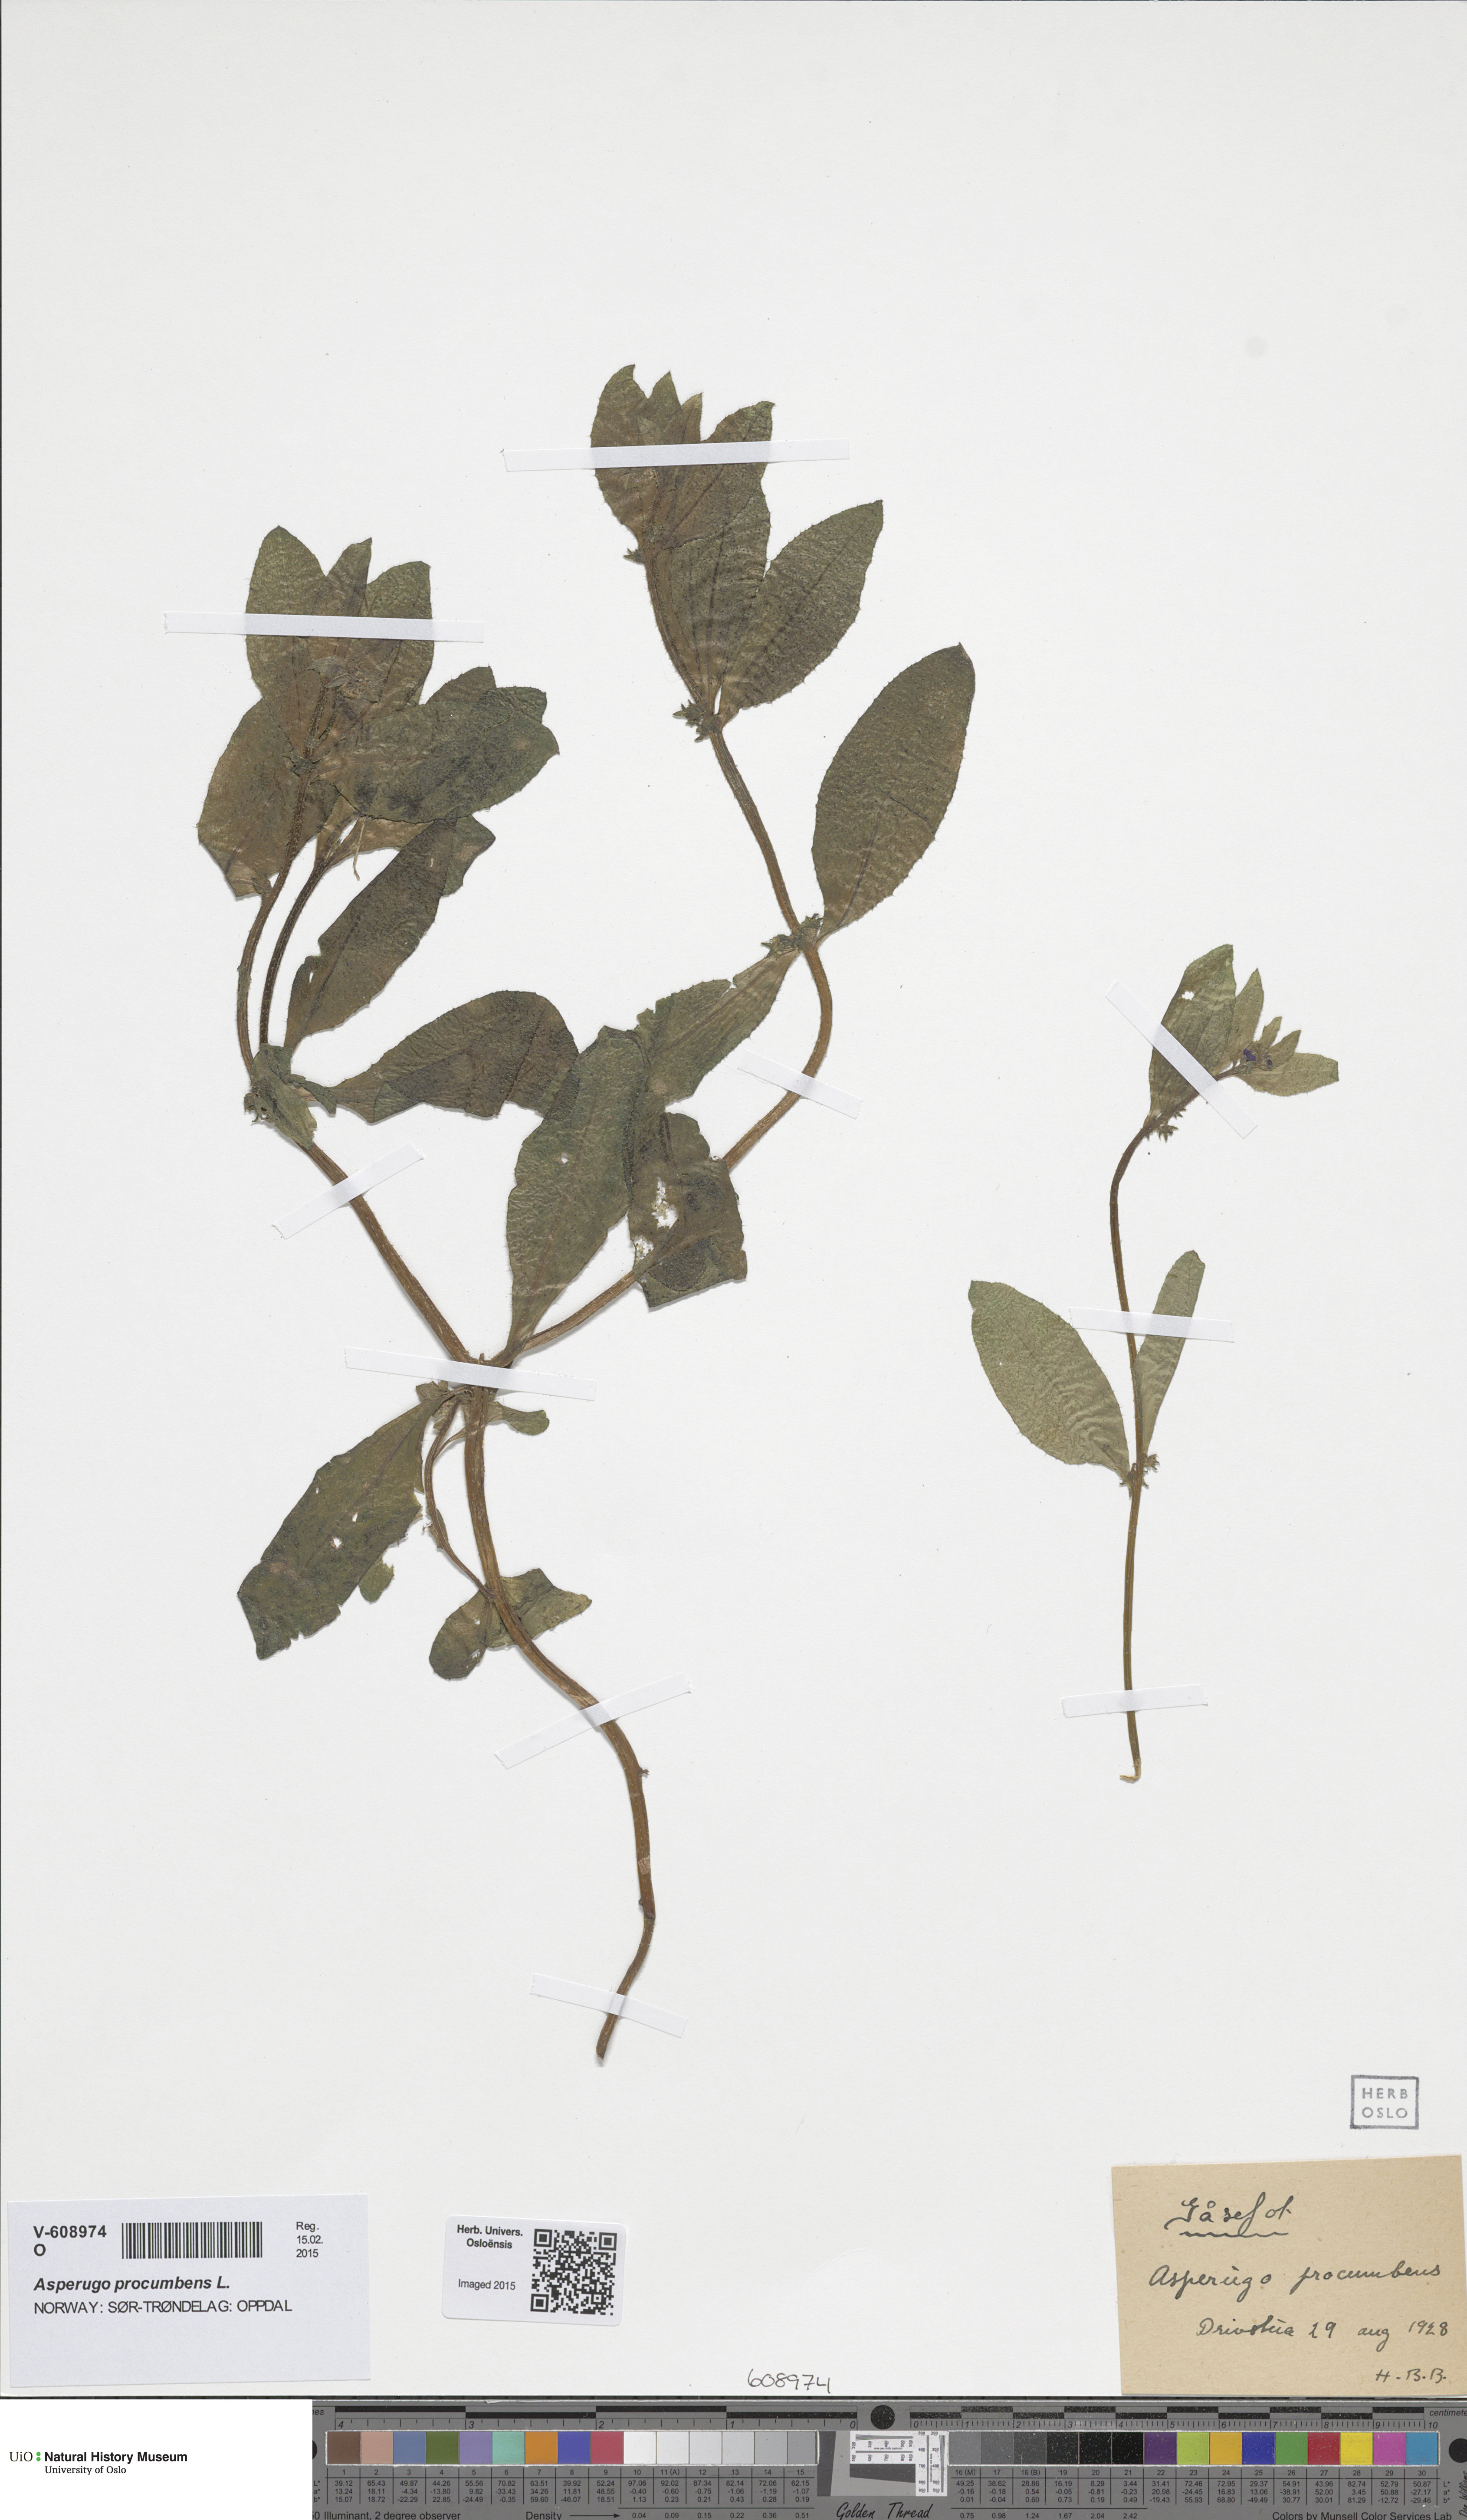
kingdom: Plantae
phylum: Tracheophyta
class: Magnoliopsida
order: Boraginales
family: Boraginaceae
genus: Asperugo
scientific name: Asperugo procumbens
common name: Madwort
